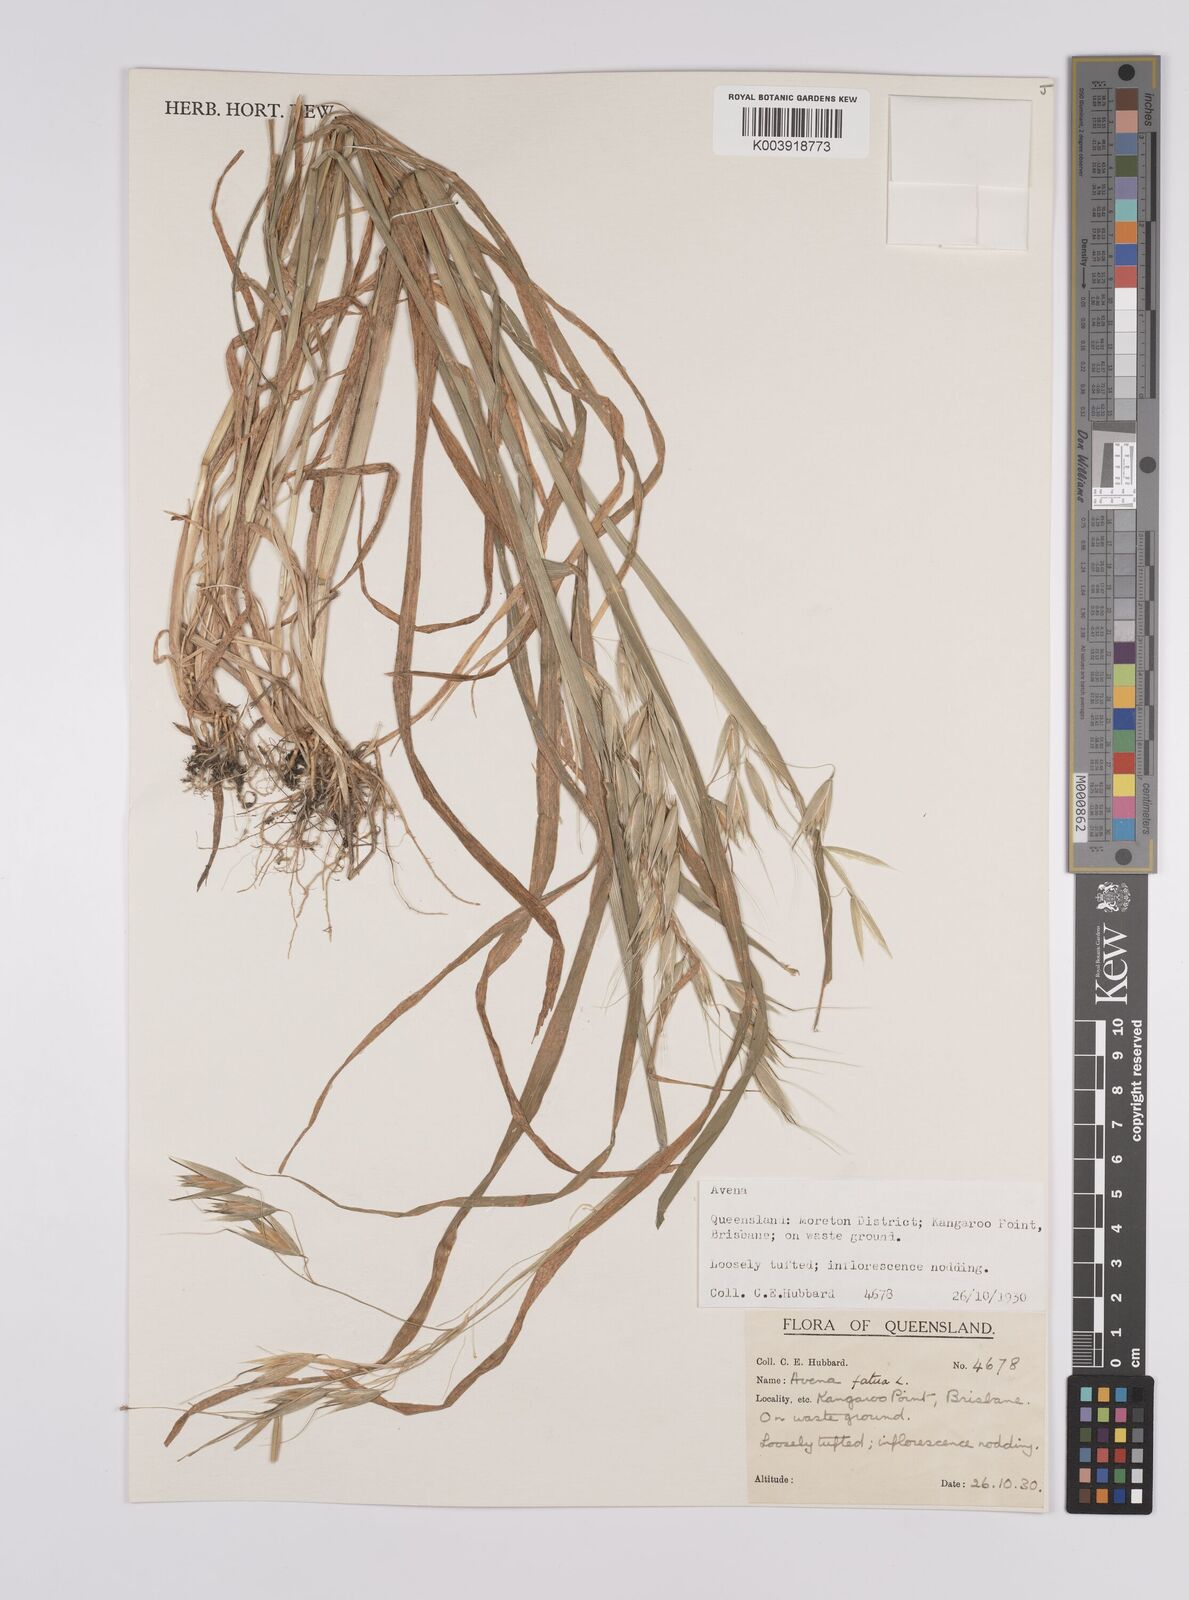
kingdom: Plantae
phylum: Tracheophyta
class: Liliopsida
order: Poales
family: Poaceae
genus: Avena
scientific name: Avena fatua
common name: Wild oat
